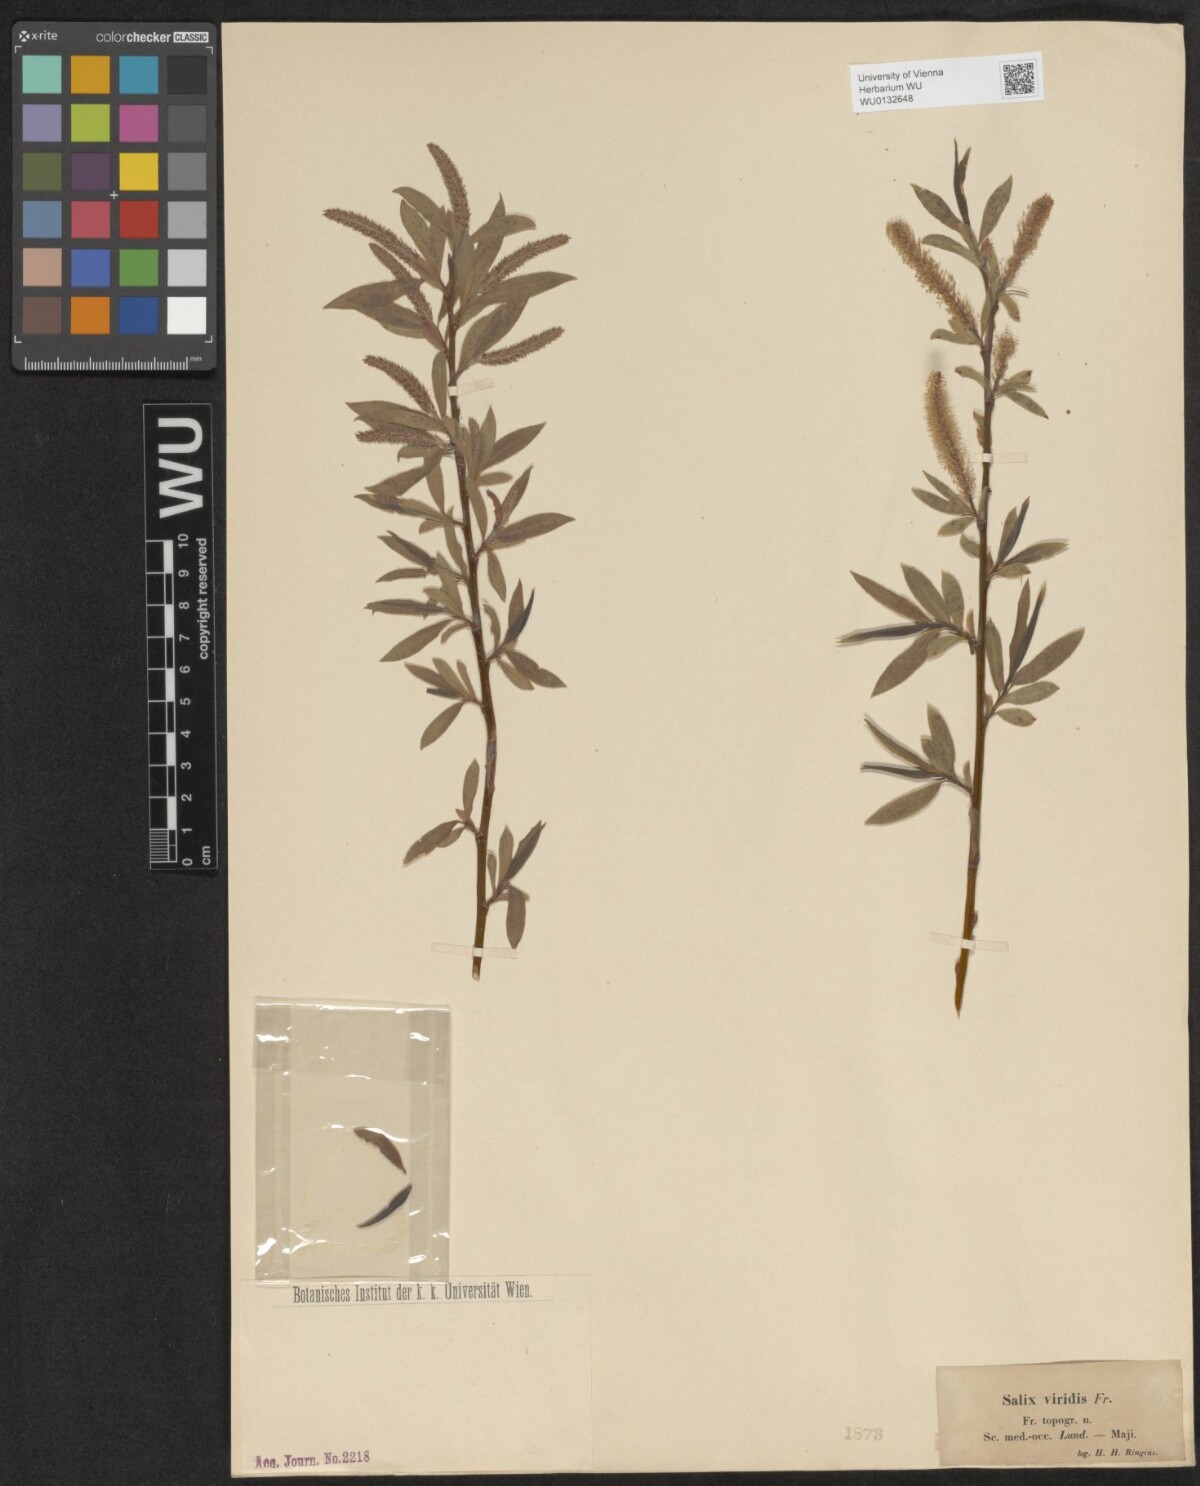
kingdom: Plantae
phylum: Tracheophyta
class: Magnoliopsida
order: Malpighiales
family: Salicaceae
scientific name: Salicaceae
